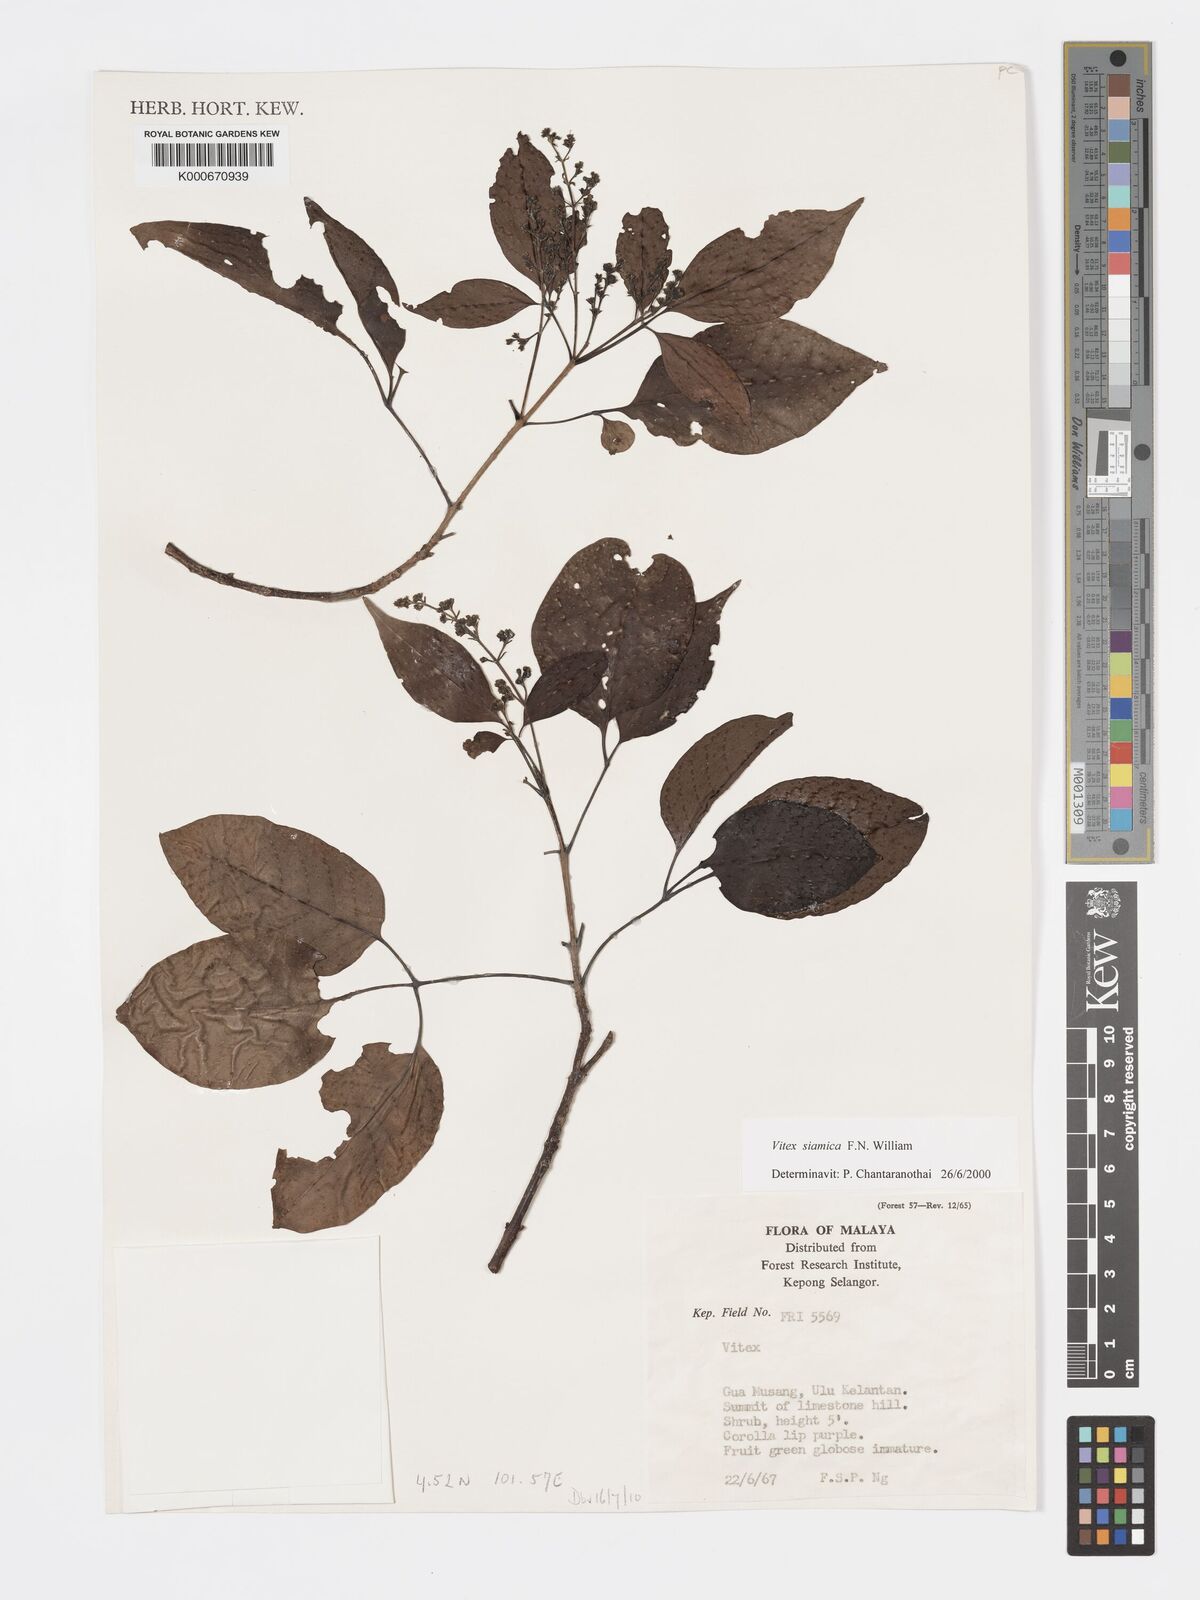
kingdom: Plantae
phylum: Tracheophyta
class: Magnoliopsida
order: Lamiales
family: Lamiaceae
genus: Vitex
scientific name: Vitex siamica
